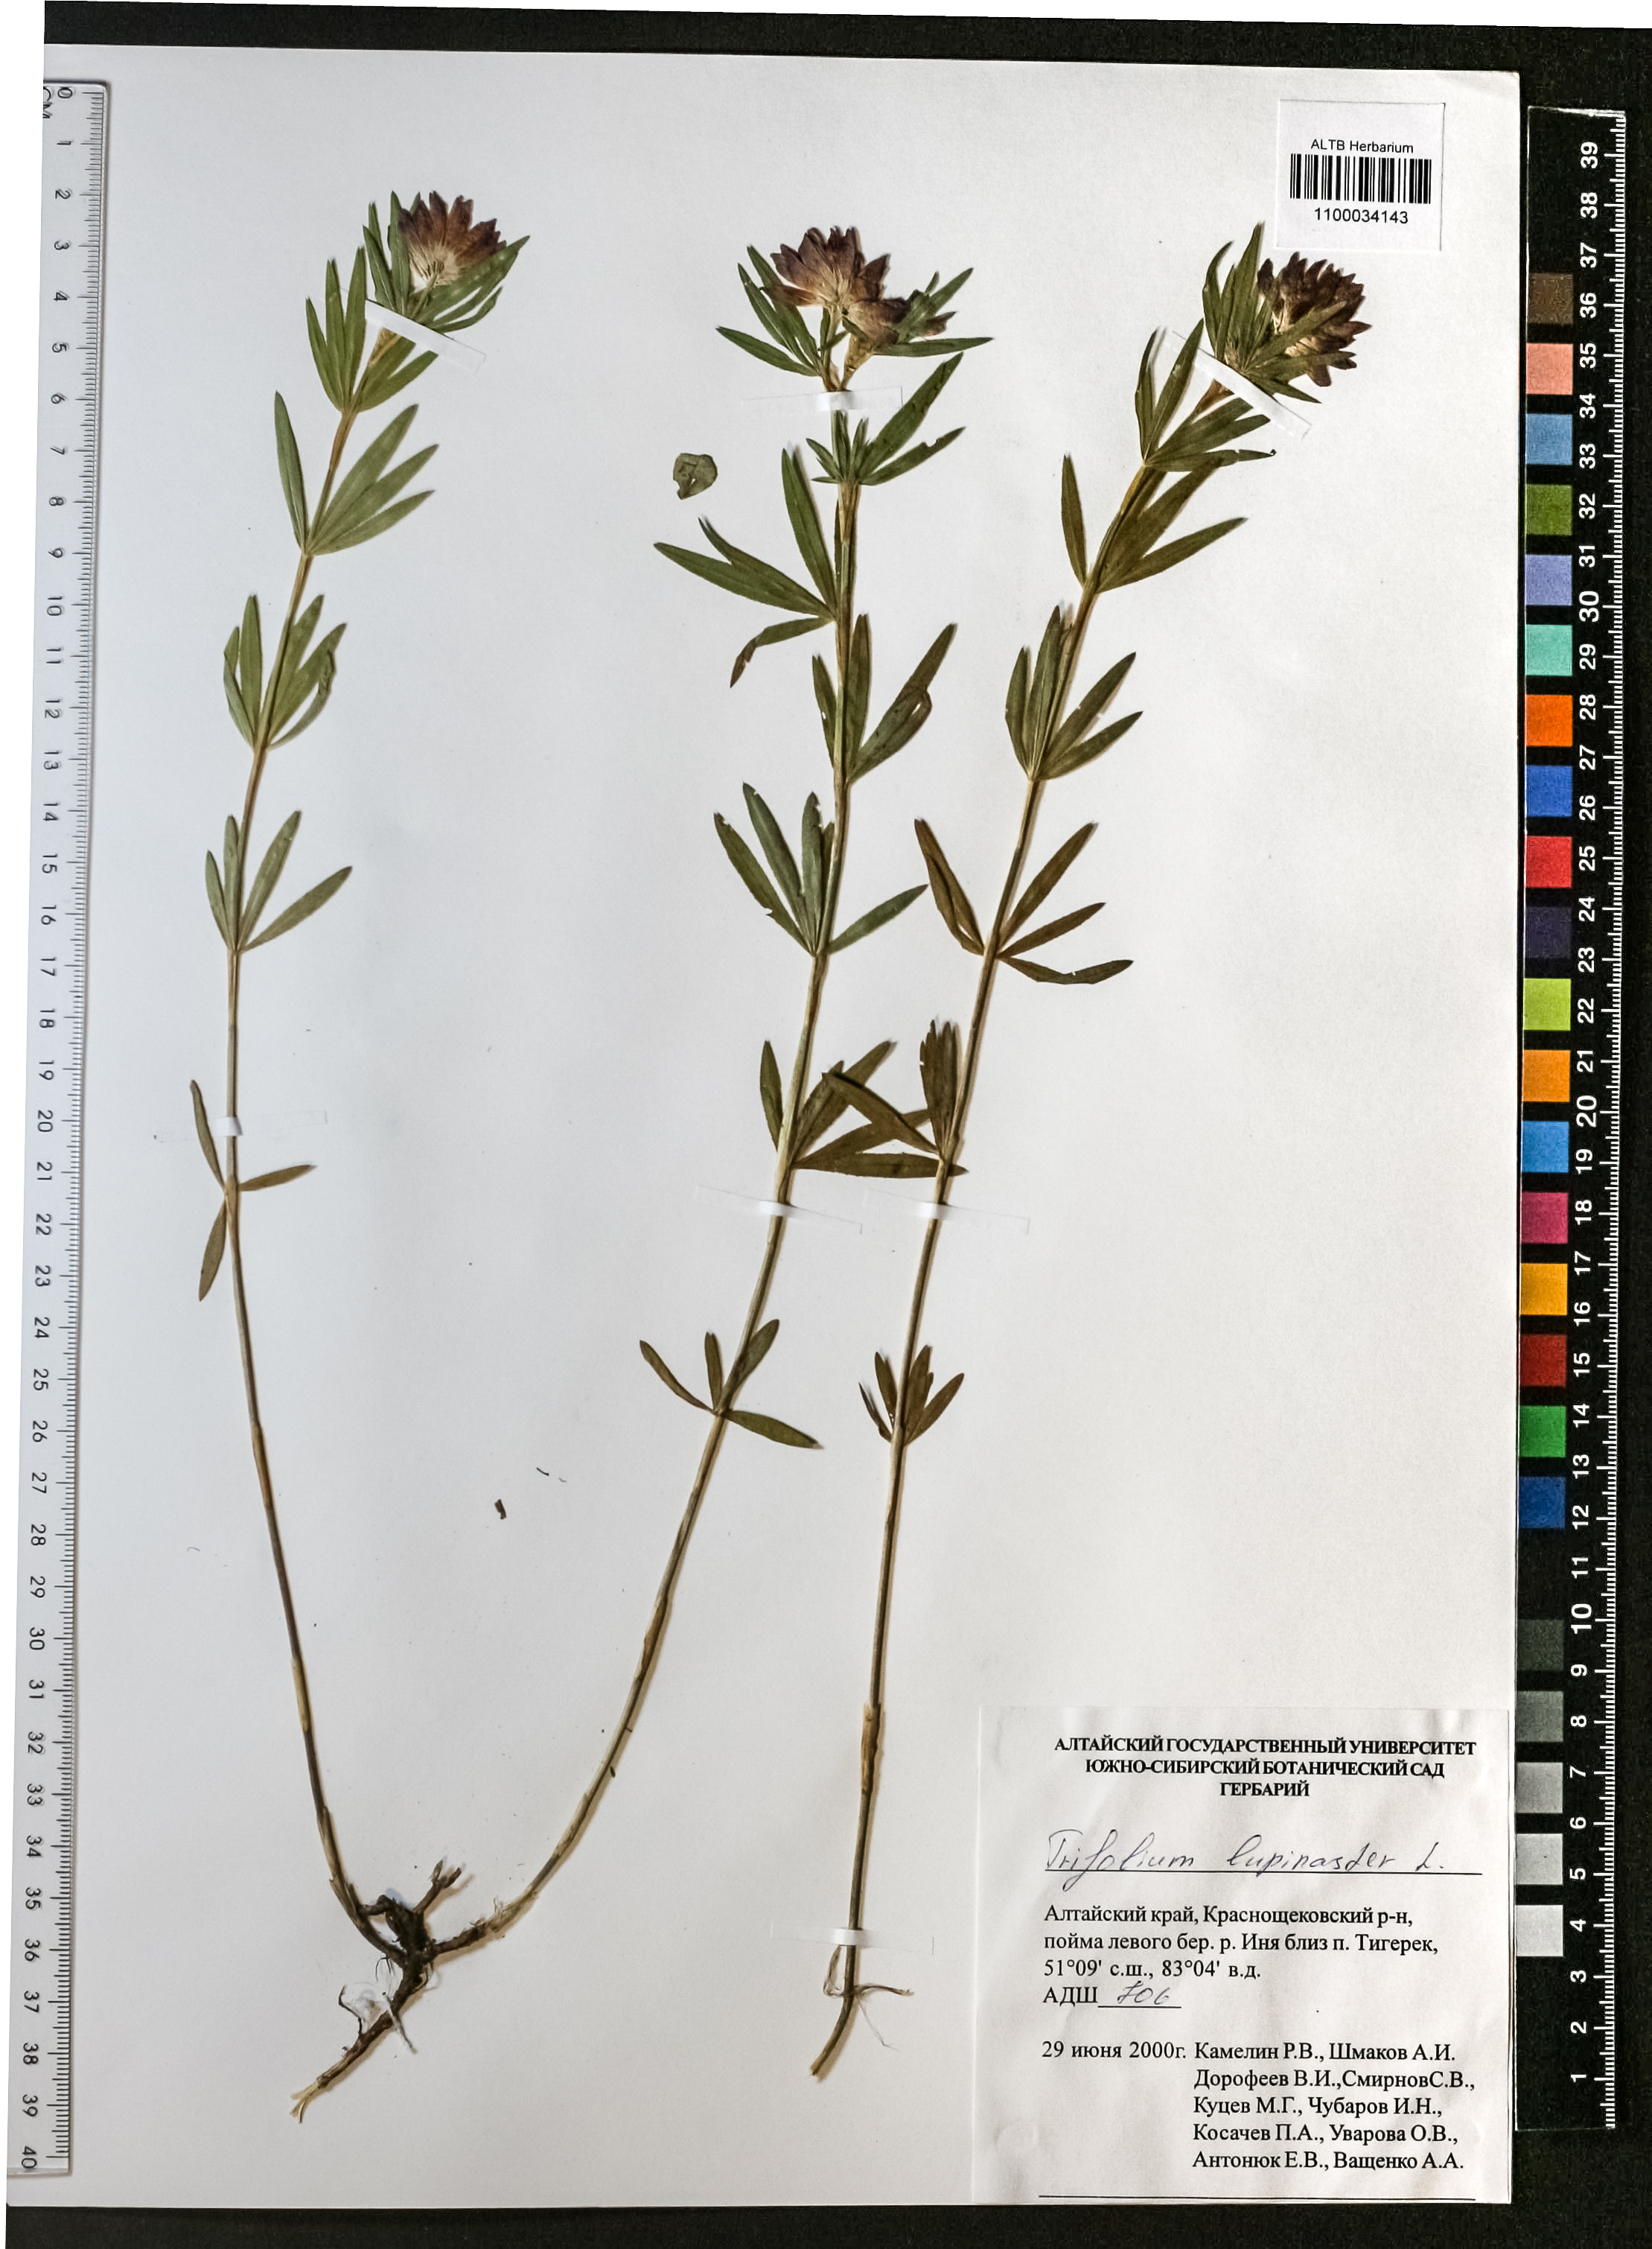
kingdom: Plantae
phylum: Tracheophyta
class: Magnoliopsida
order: Fabales
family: Fabaceae
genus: Trifolium
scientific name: Trifolium lupinaster
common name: Lupine clover
